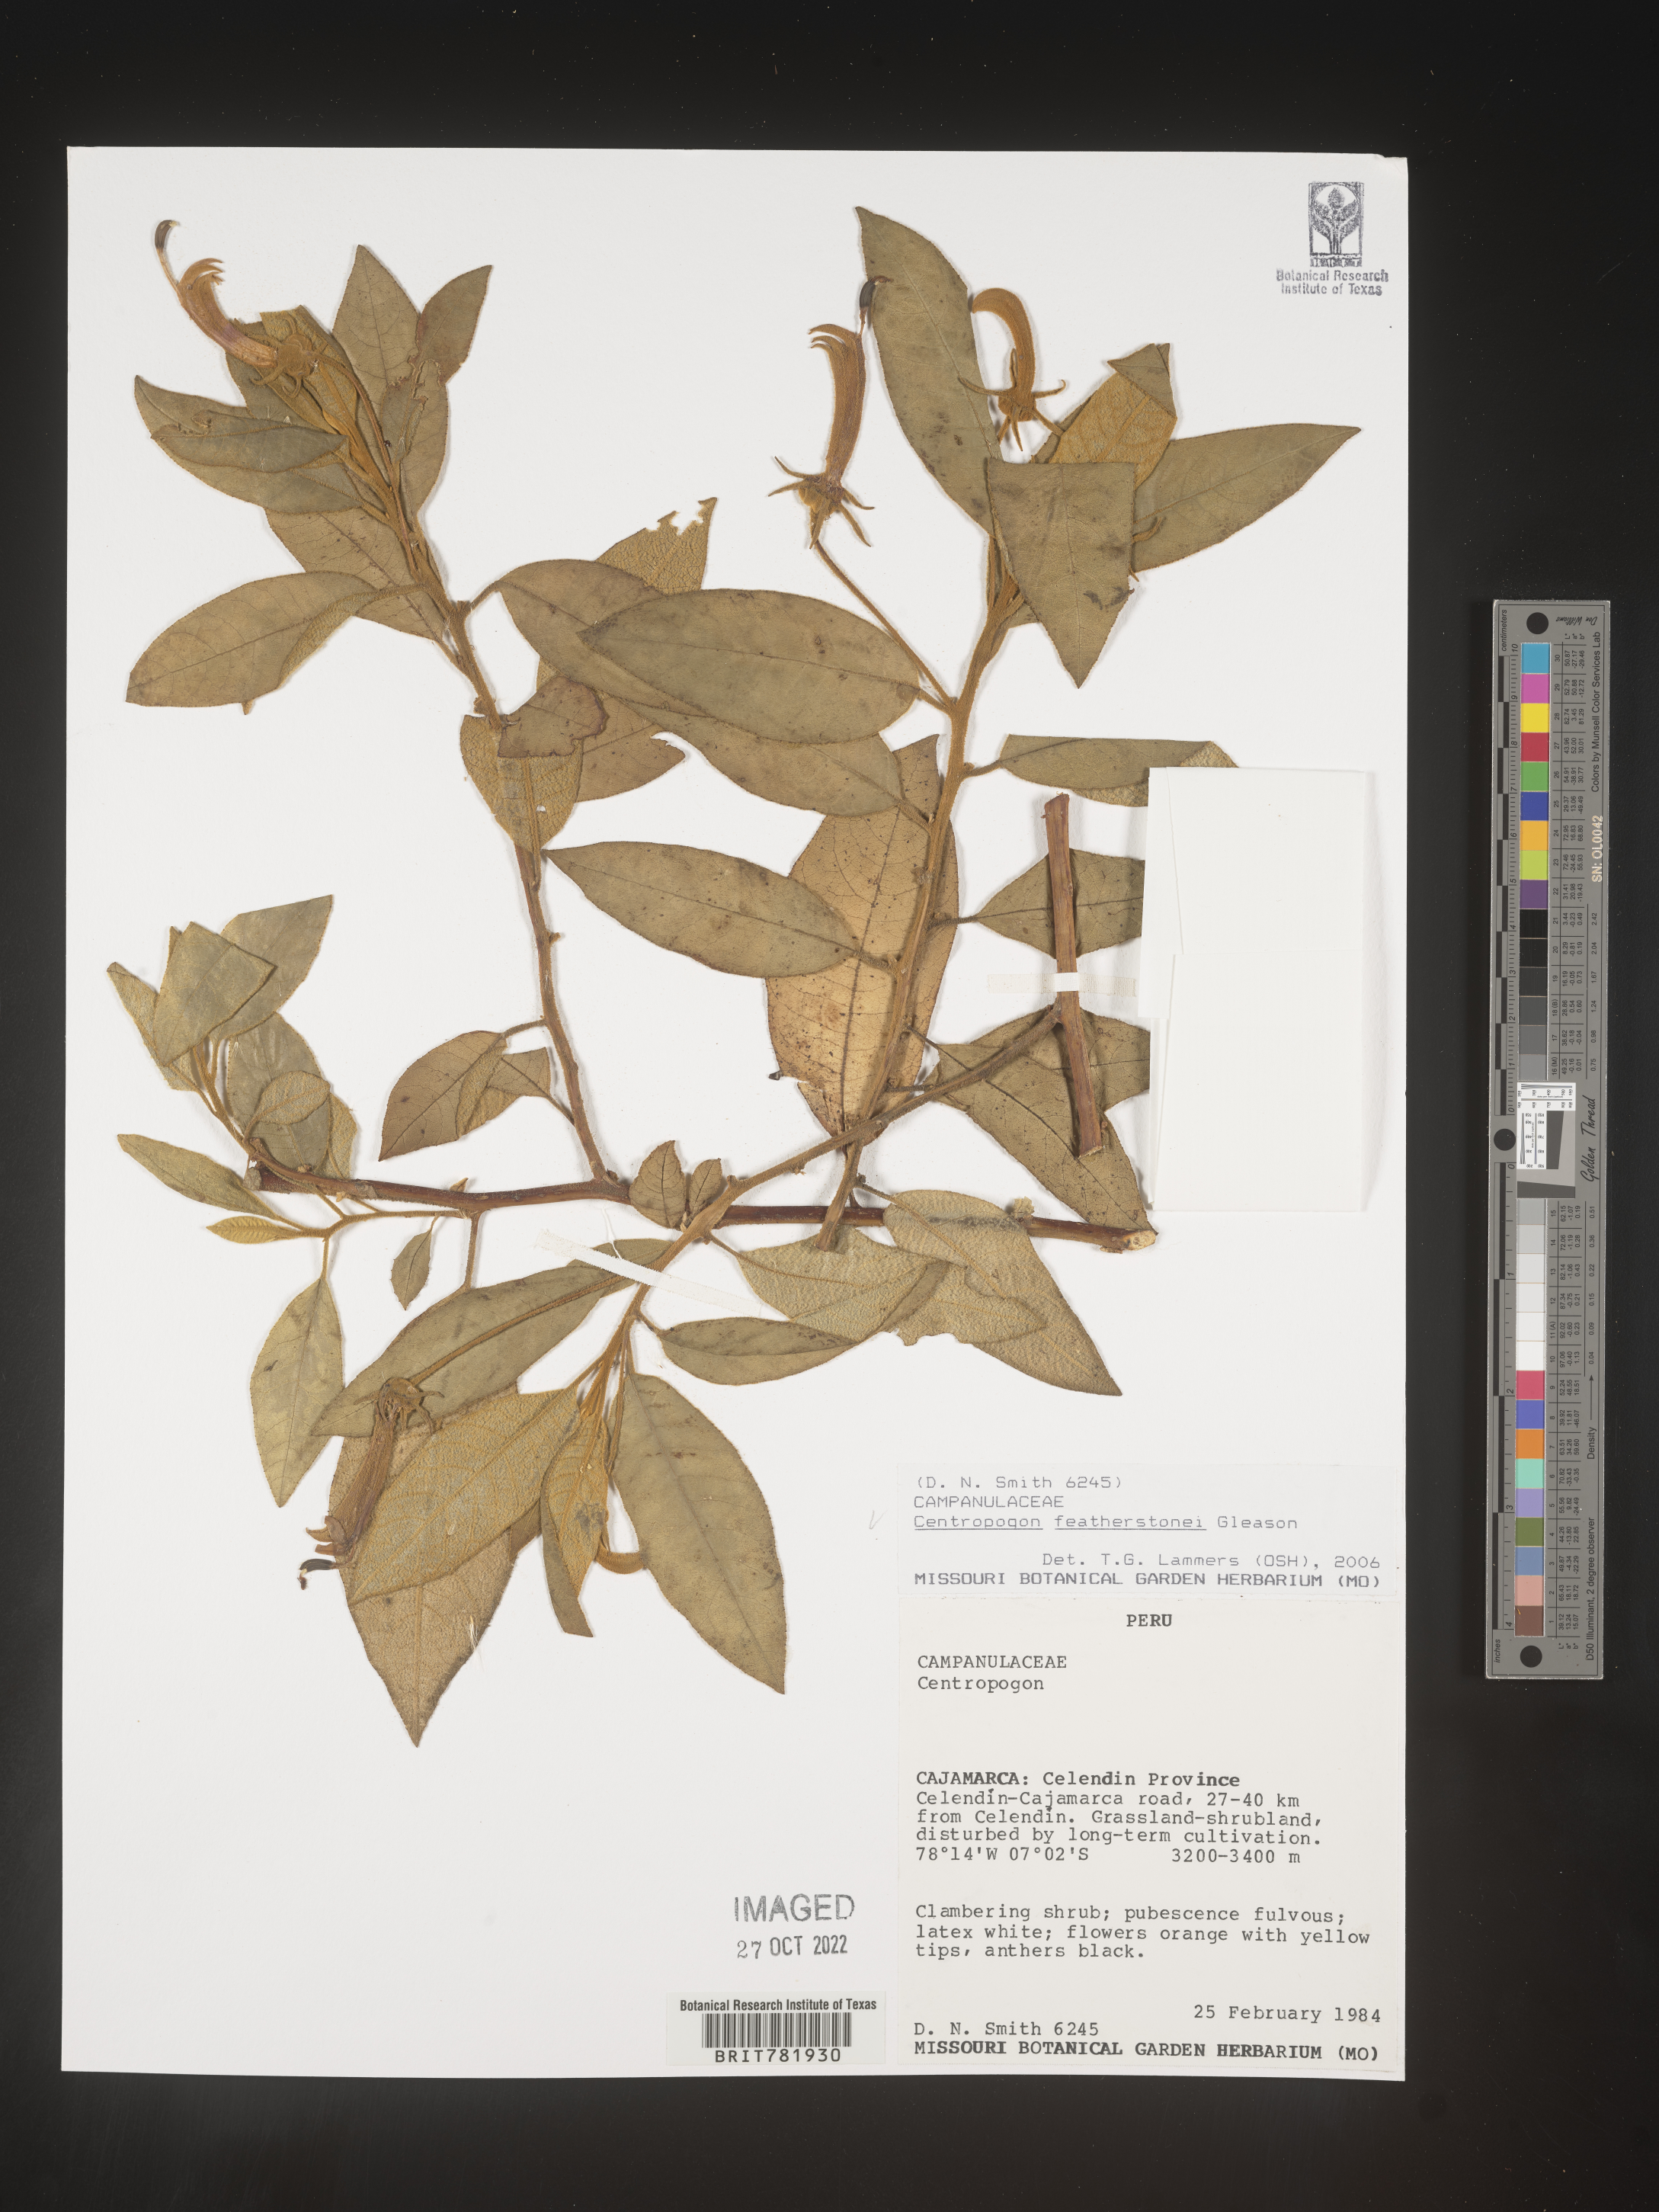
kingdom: Plantae
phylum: Tracheophyta
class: Magnoliopsida
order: Asterales
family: Campanulaceae
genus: Centropogon
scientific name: Centropogon
